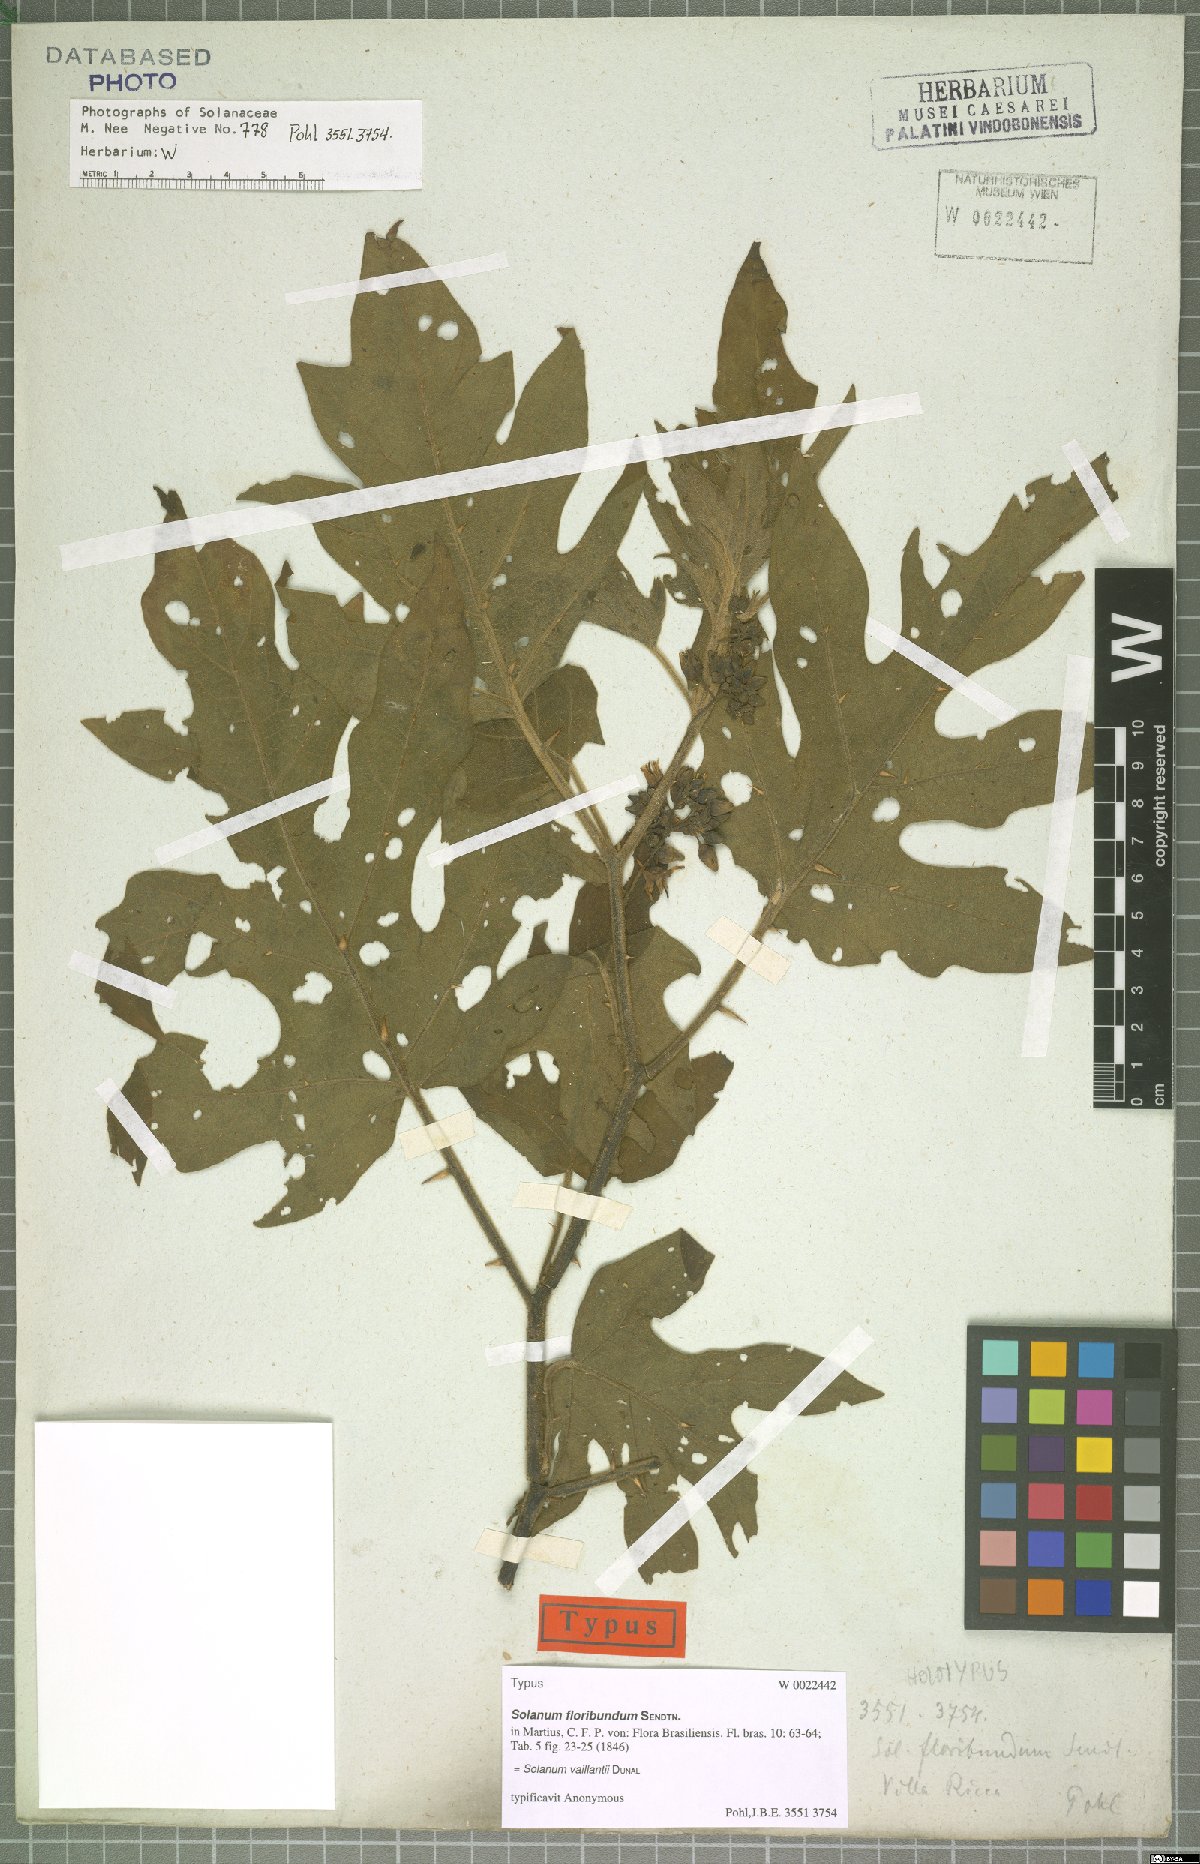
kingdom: Plantae
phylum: Tracheophyta
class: Magnoliopsida
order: Solanales
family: Solanaceae
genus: Solanum
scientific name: Solanum vaillantii
